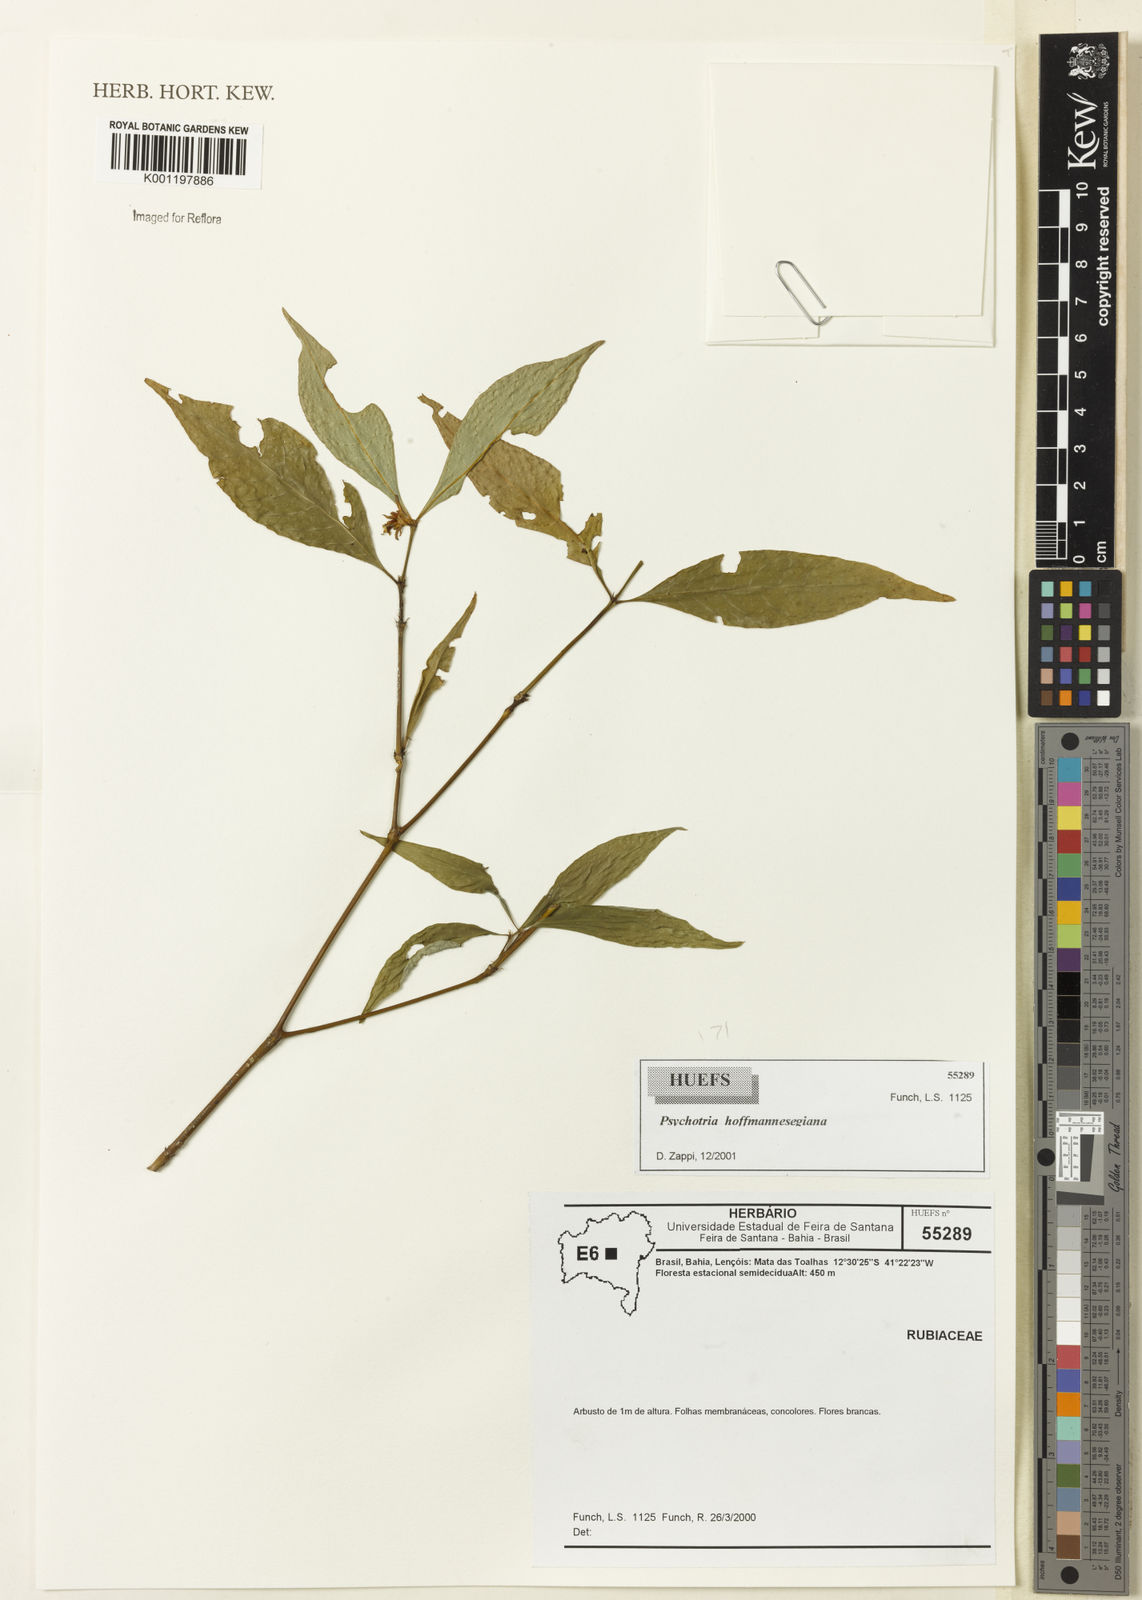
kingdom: Plantae
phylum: Tracheophyta
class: Magnoliopsida
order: Gentianales
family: Rubiaceae
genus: Psychotria
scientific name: Psychotria
